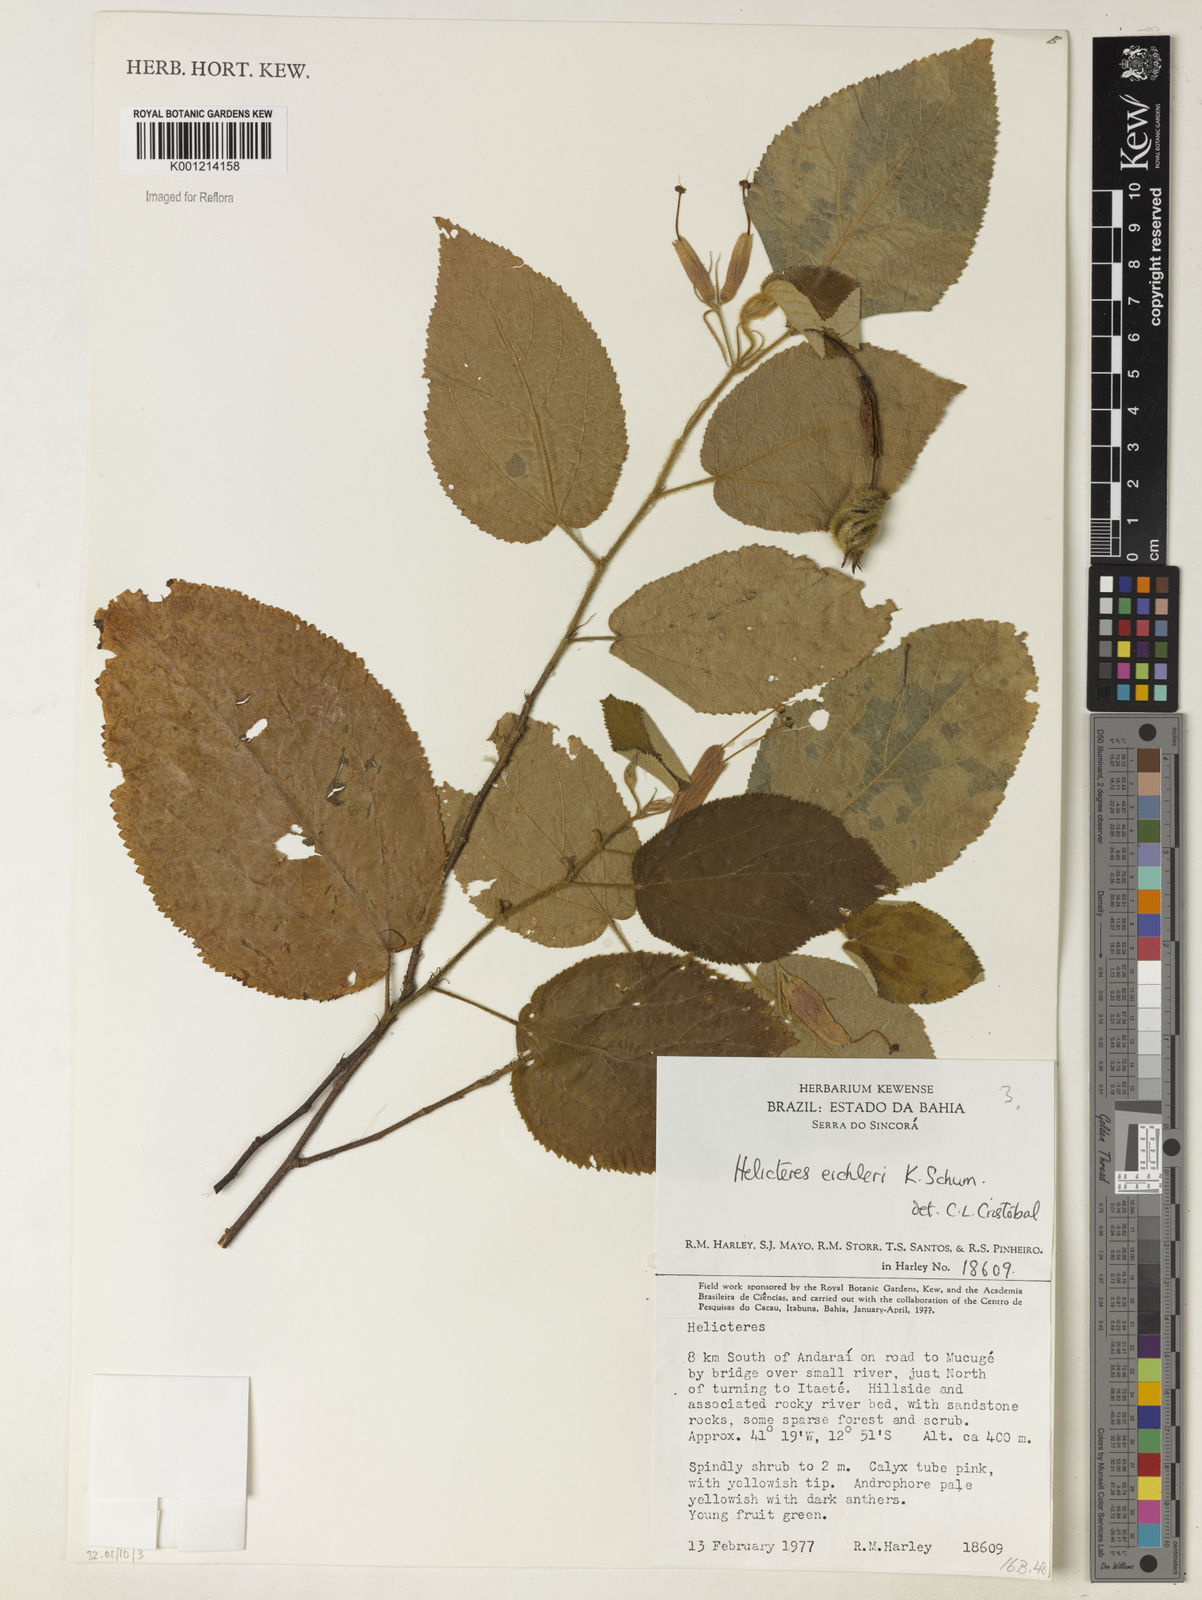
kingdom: Plantae
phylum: Tracheophyta
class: Magnoliopsida
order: Malvales
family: Malvaceae
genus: Helicteres
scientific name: Helicteres eichleri
